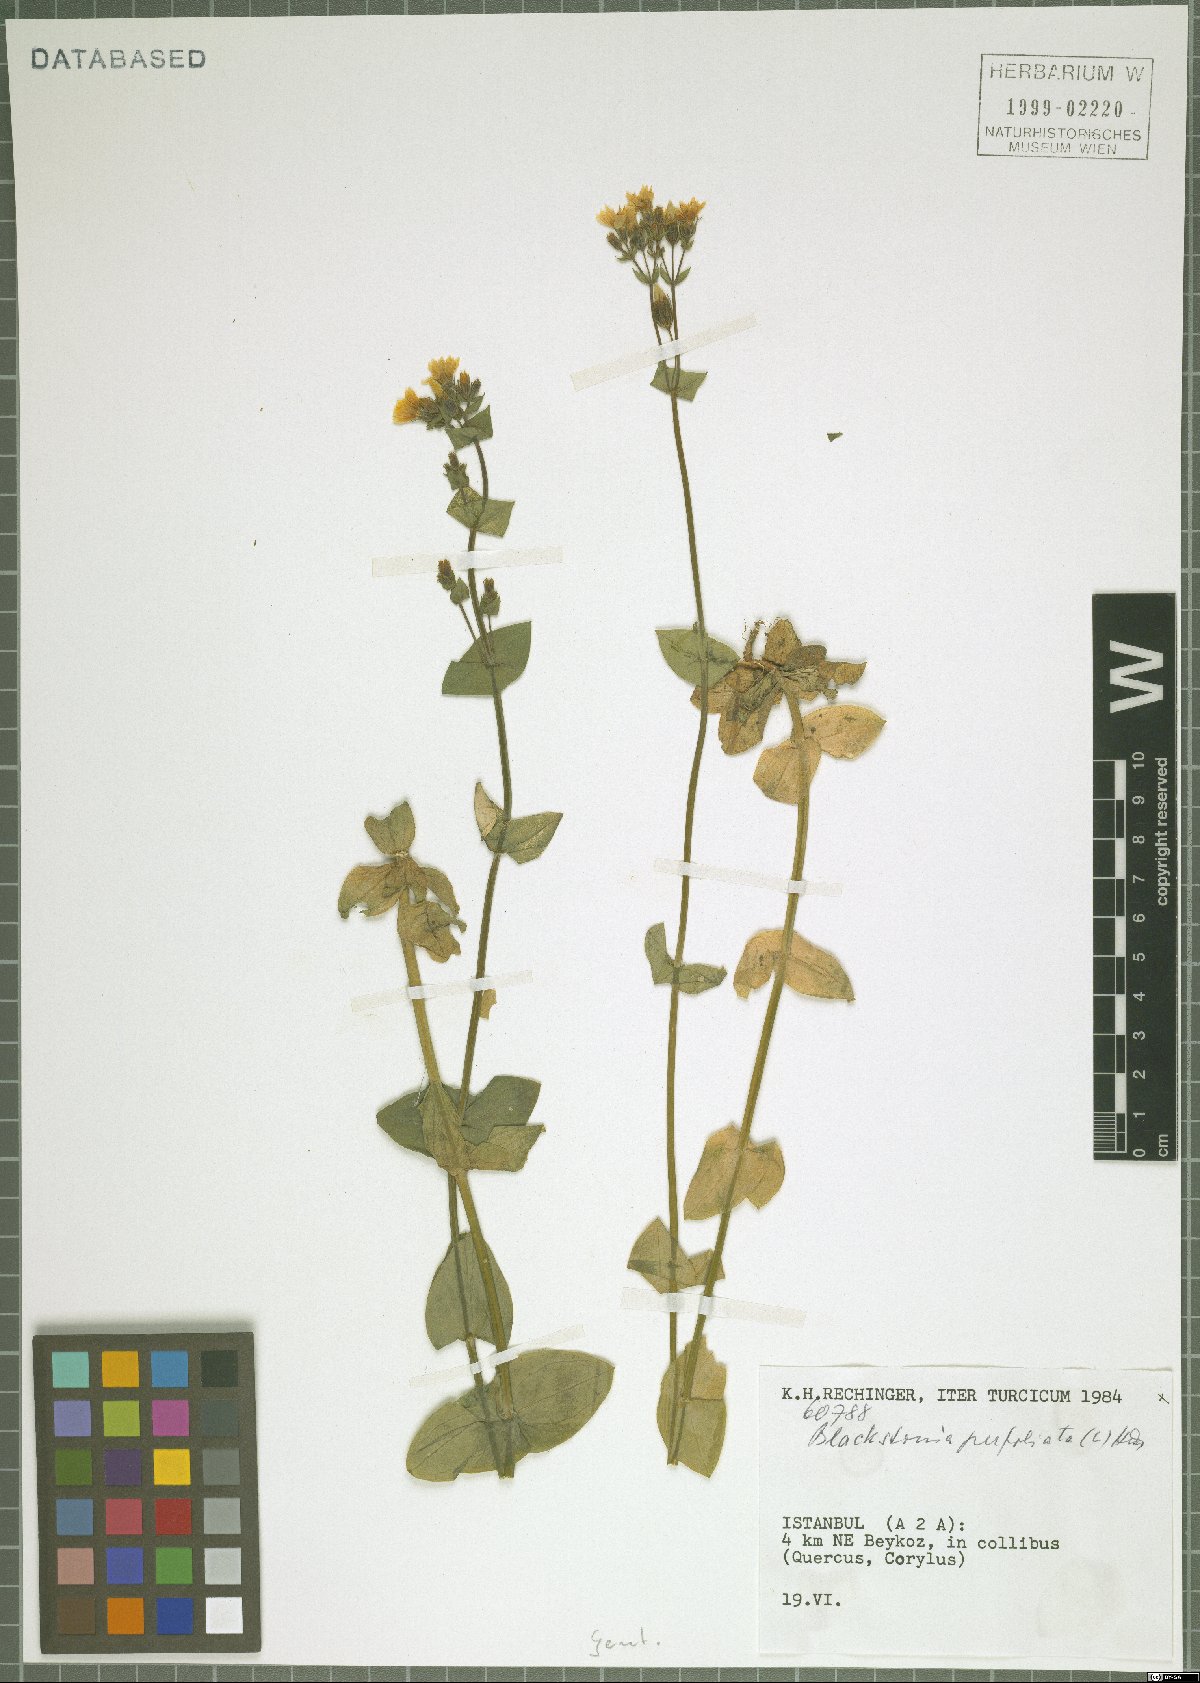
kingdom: Plantae
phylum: Tracheophyta
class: Magnoliopsida
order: Gentianales
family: Gentianaceae
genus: Blackstonia
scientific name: Blackstonia perfoliata
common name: Yellow-wort
